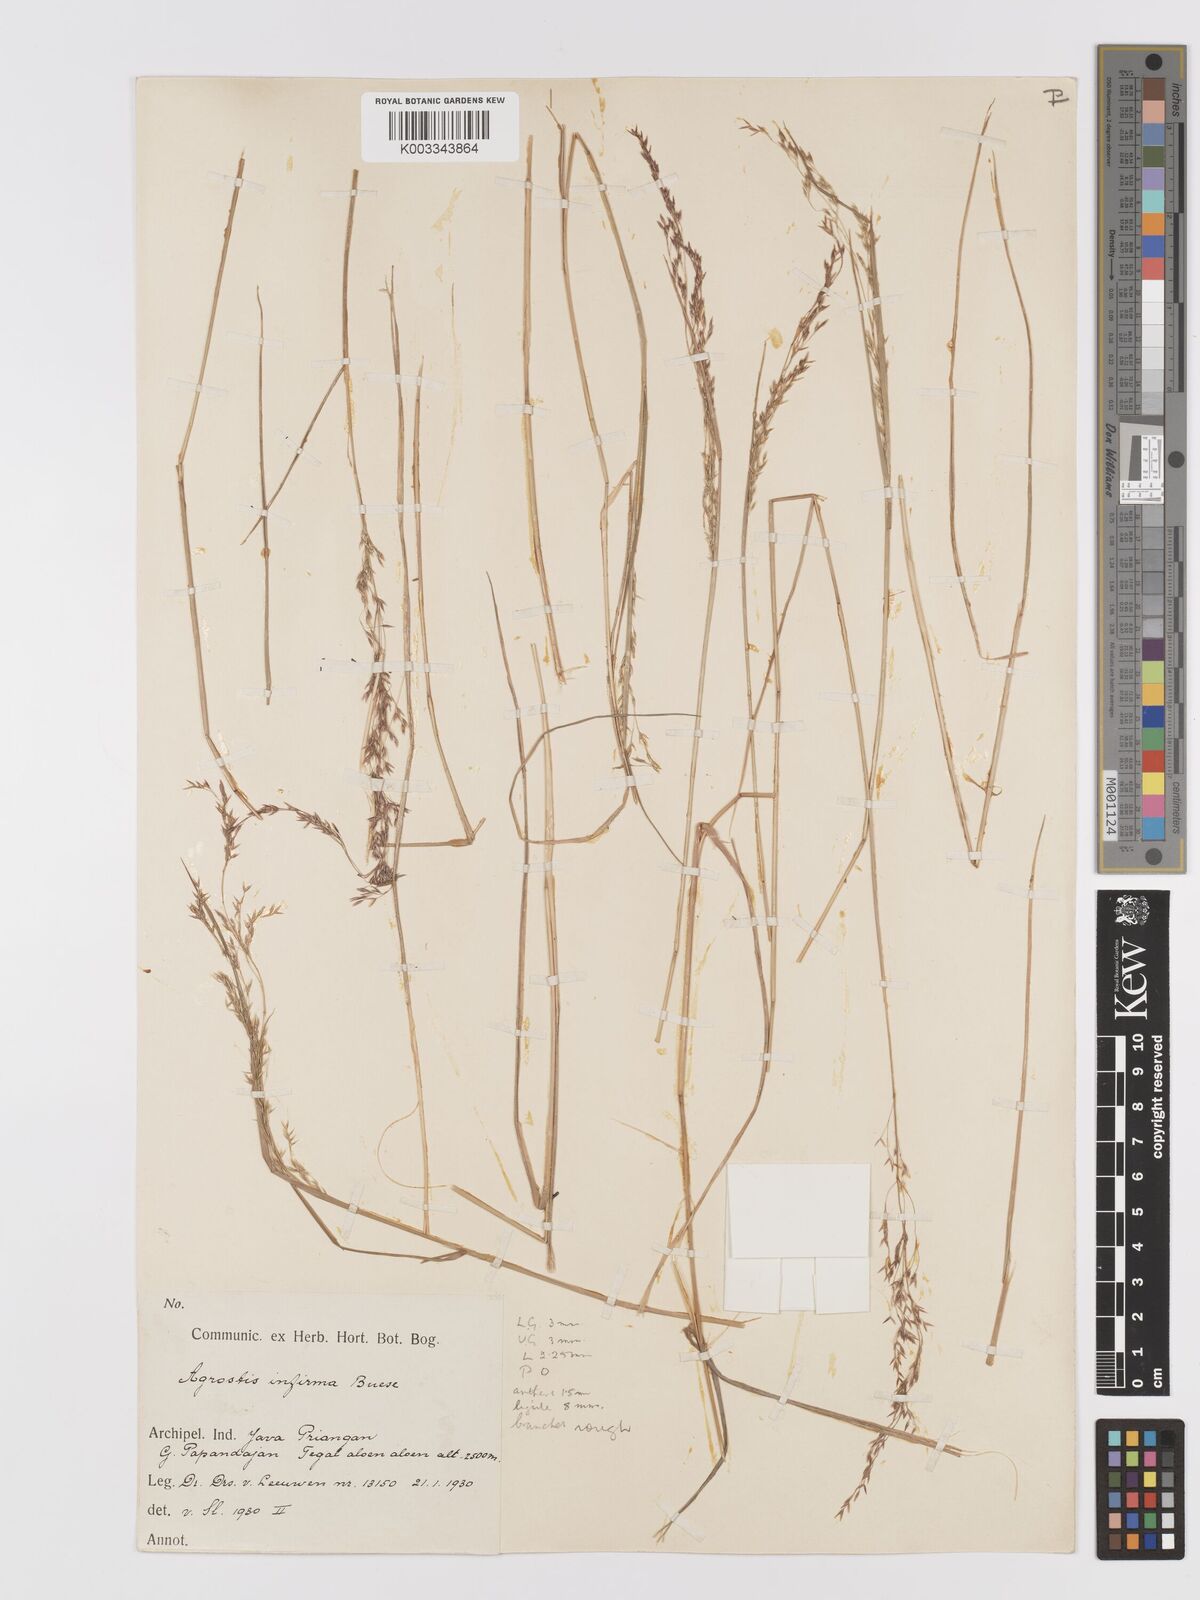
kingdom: Plantae
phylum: Tracheophyta
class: Liliopsida
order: Poales
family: Poaceae
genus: Agrostis
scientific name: Agrostis infirma
